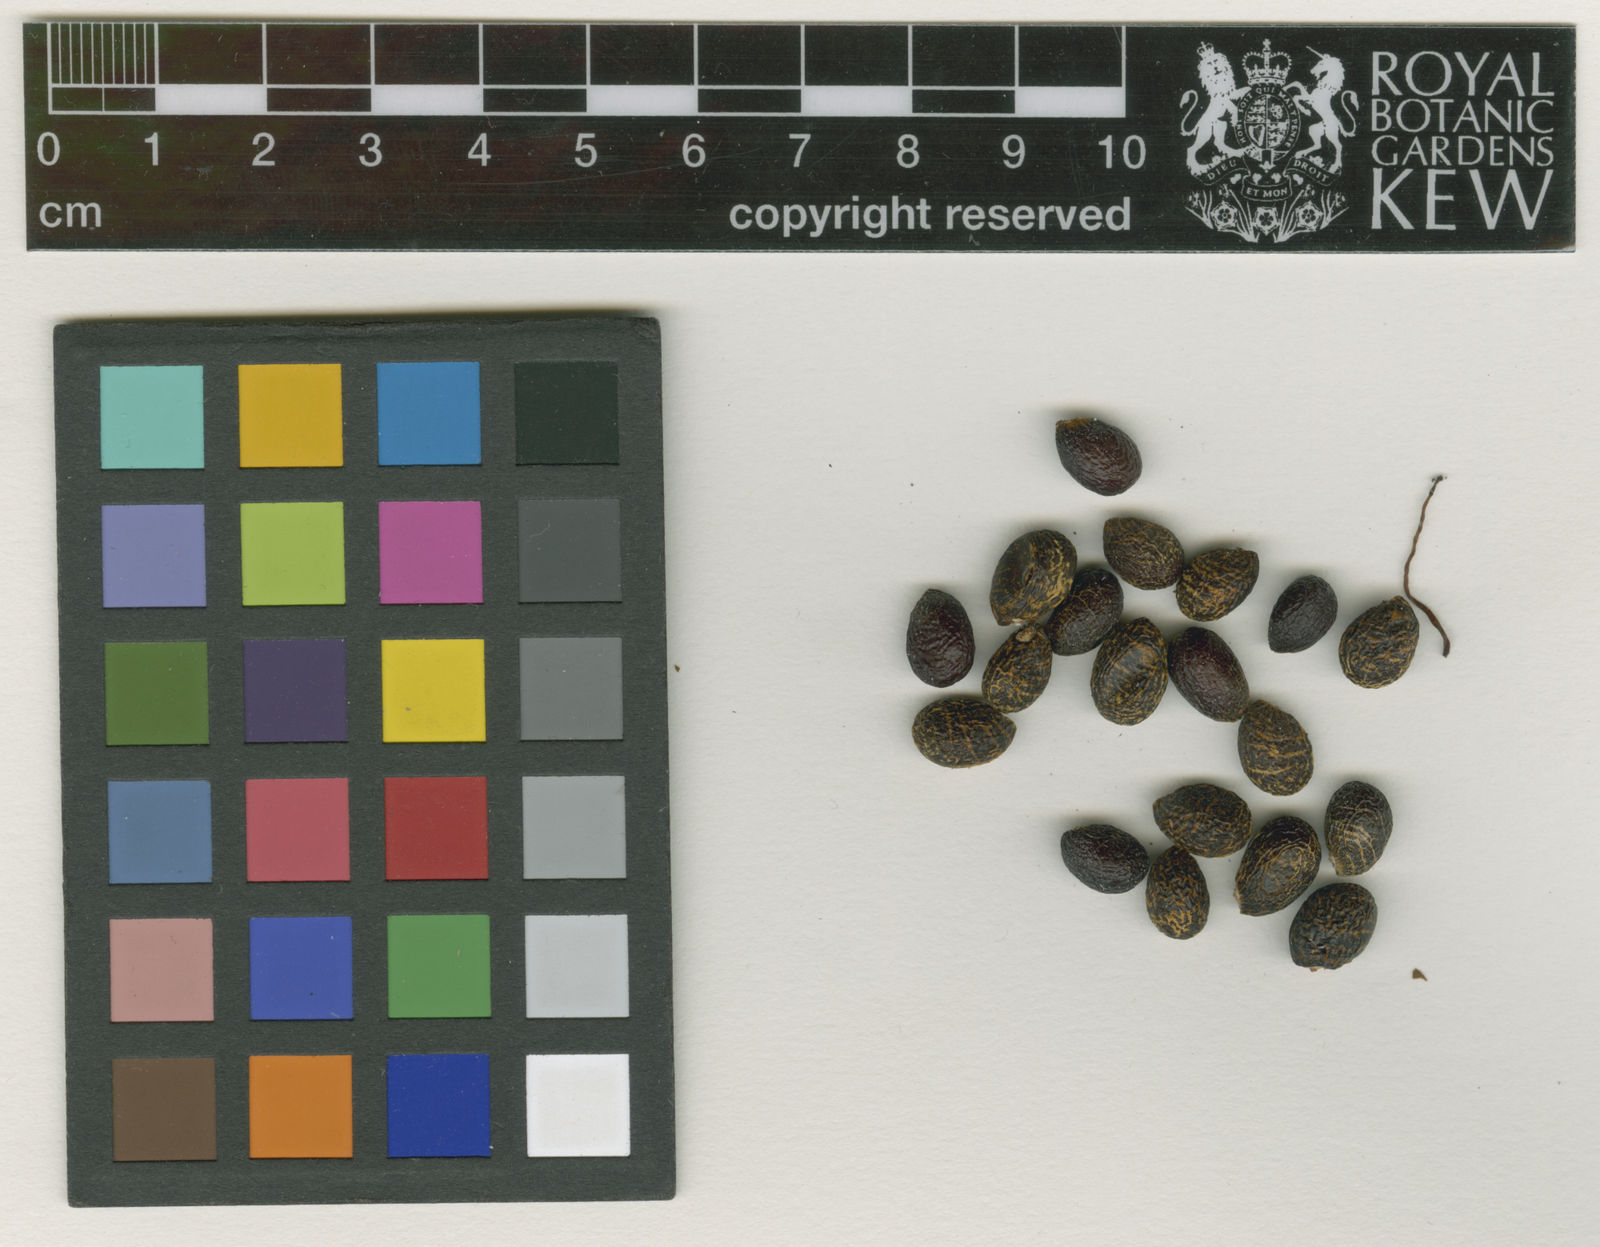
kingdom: Plantae
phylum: Tracheophyta
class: Magnoliopsida
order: Malpighiales
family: Ochnaceae
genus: Ochna
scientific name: Ochna integerrima
